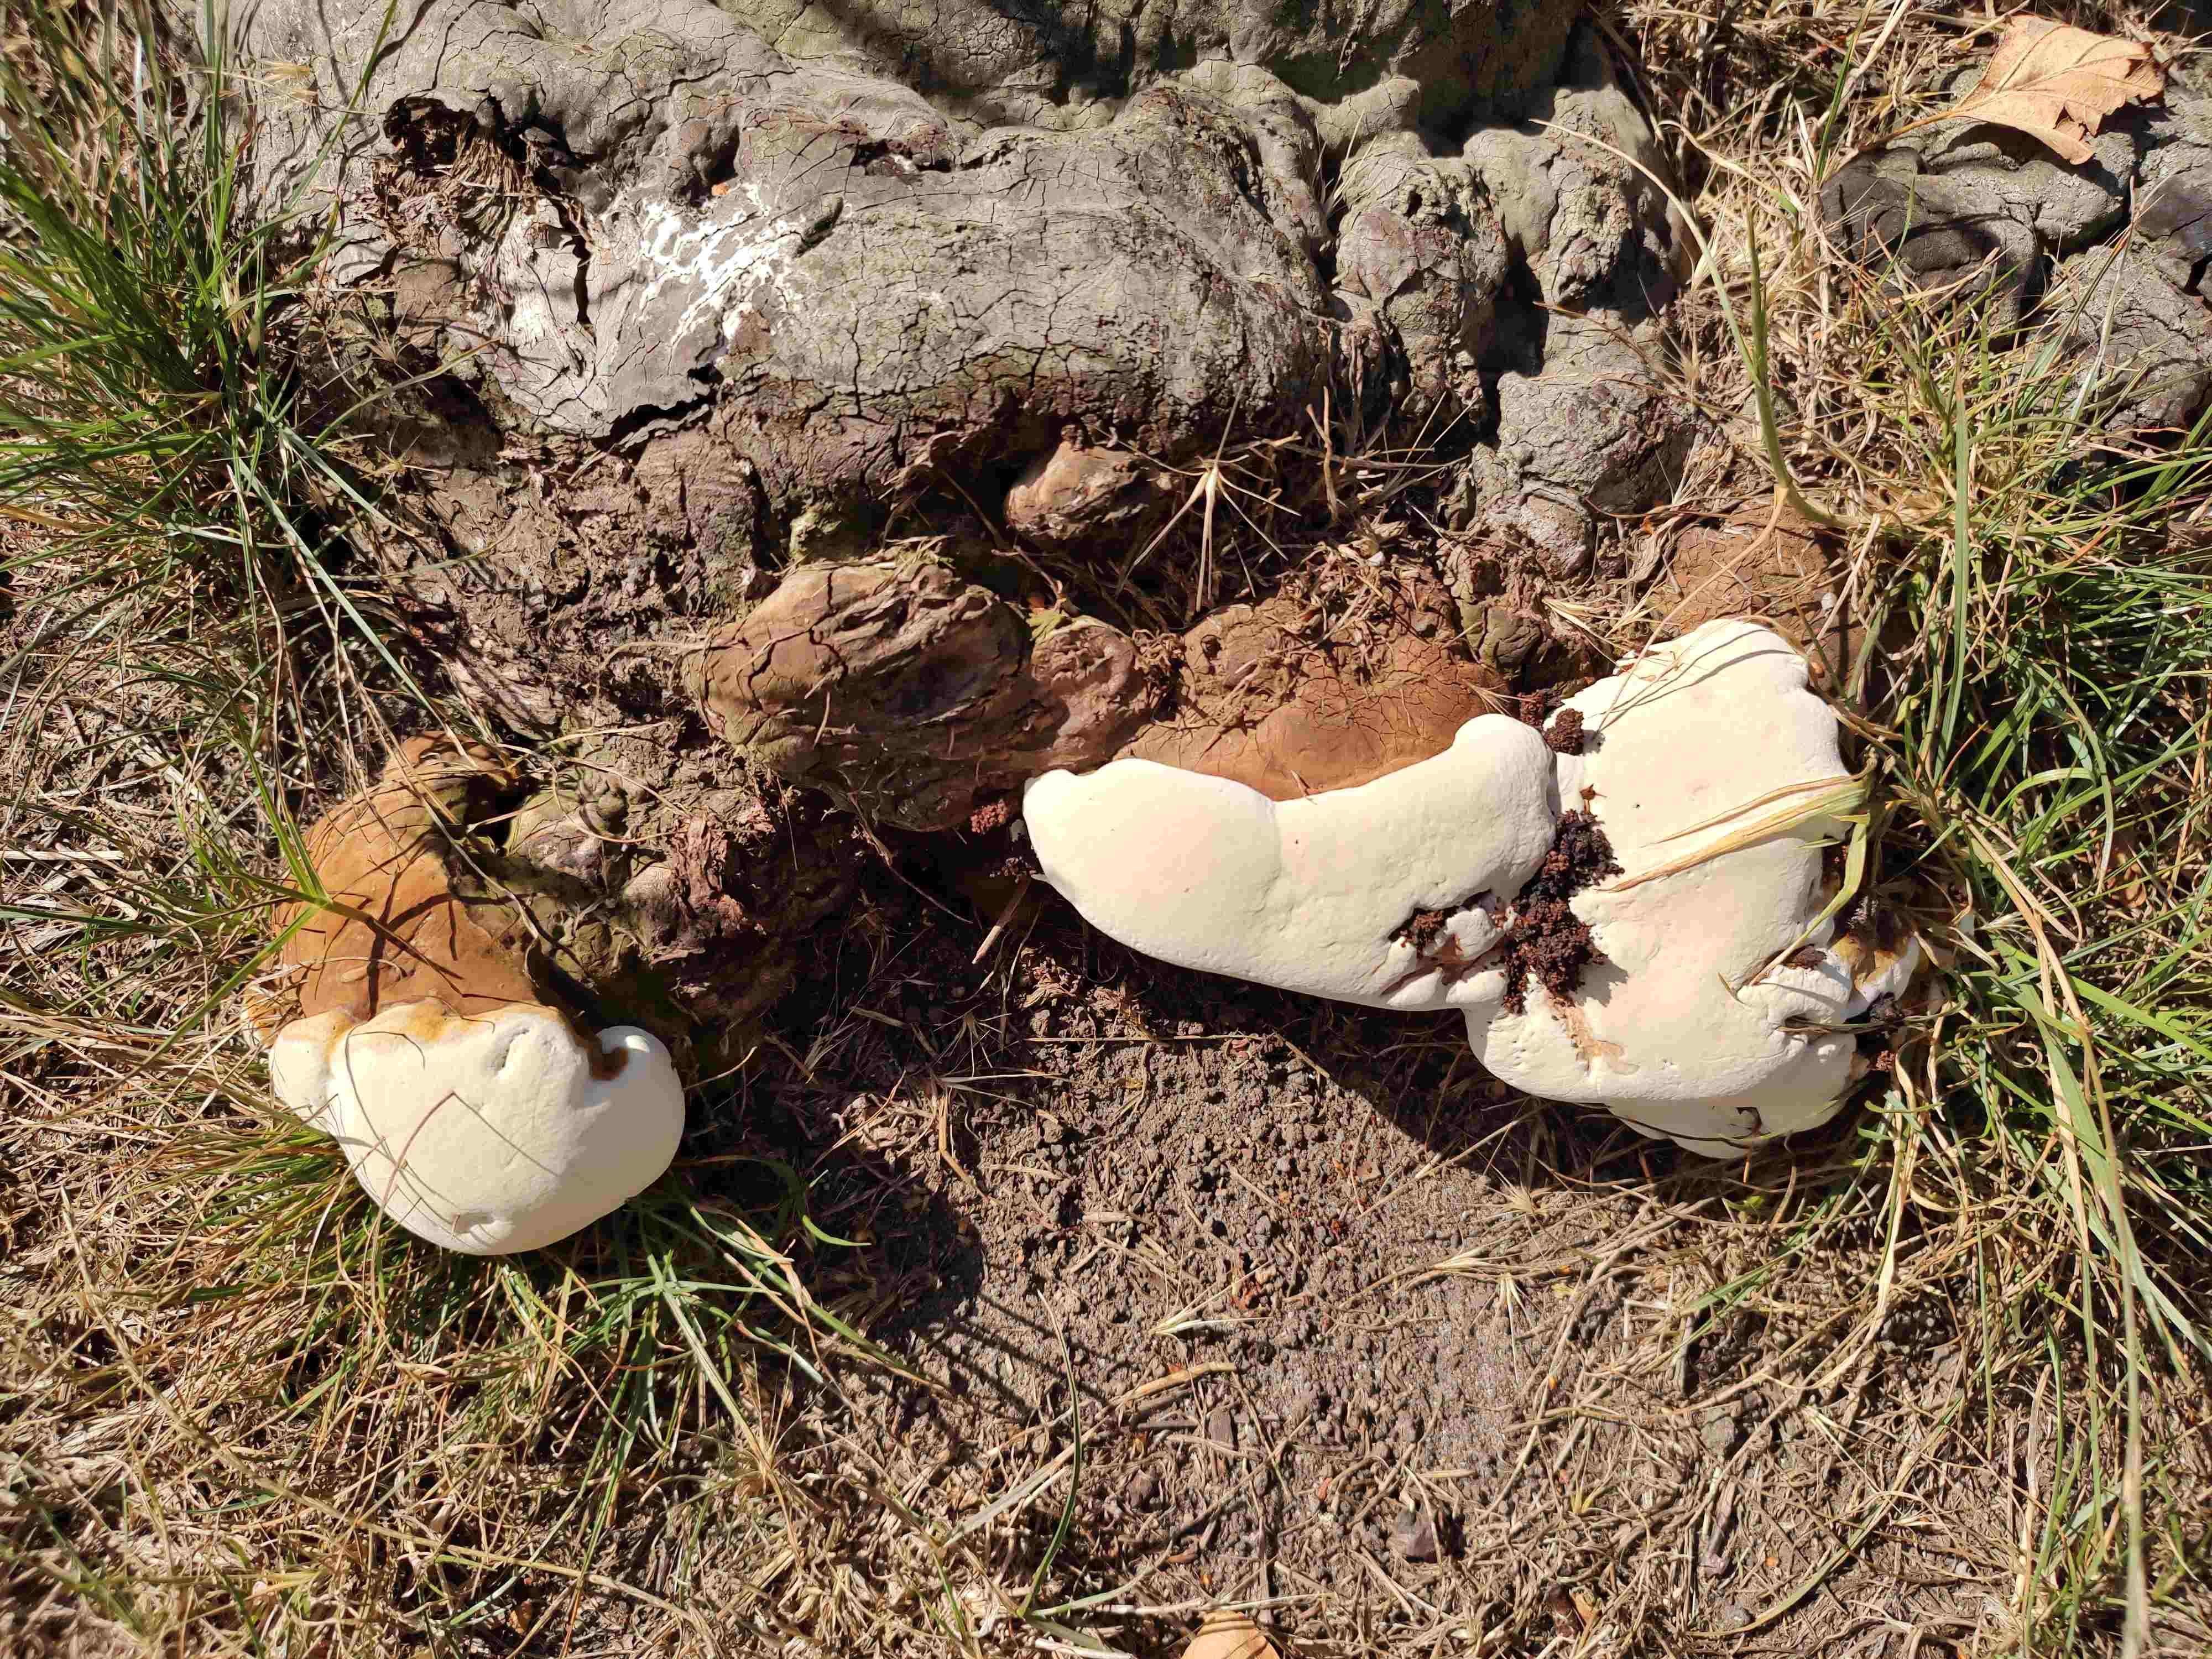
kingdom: Fungi
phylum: Basidiomycota
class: Agaricomycetes
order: Polyporales
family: Polyporaceae
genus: Ganoderma
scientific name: Ganoderma adspersum
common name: grov lakporesvamp
